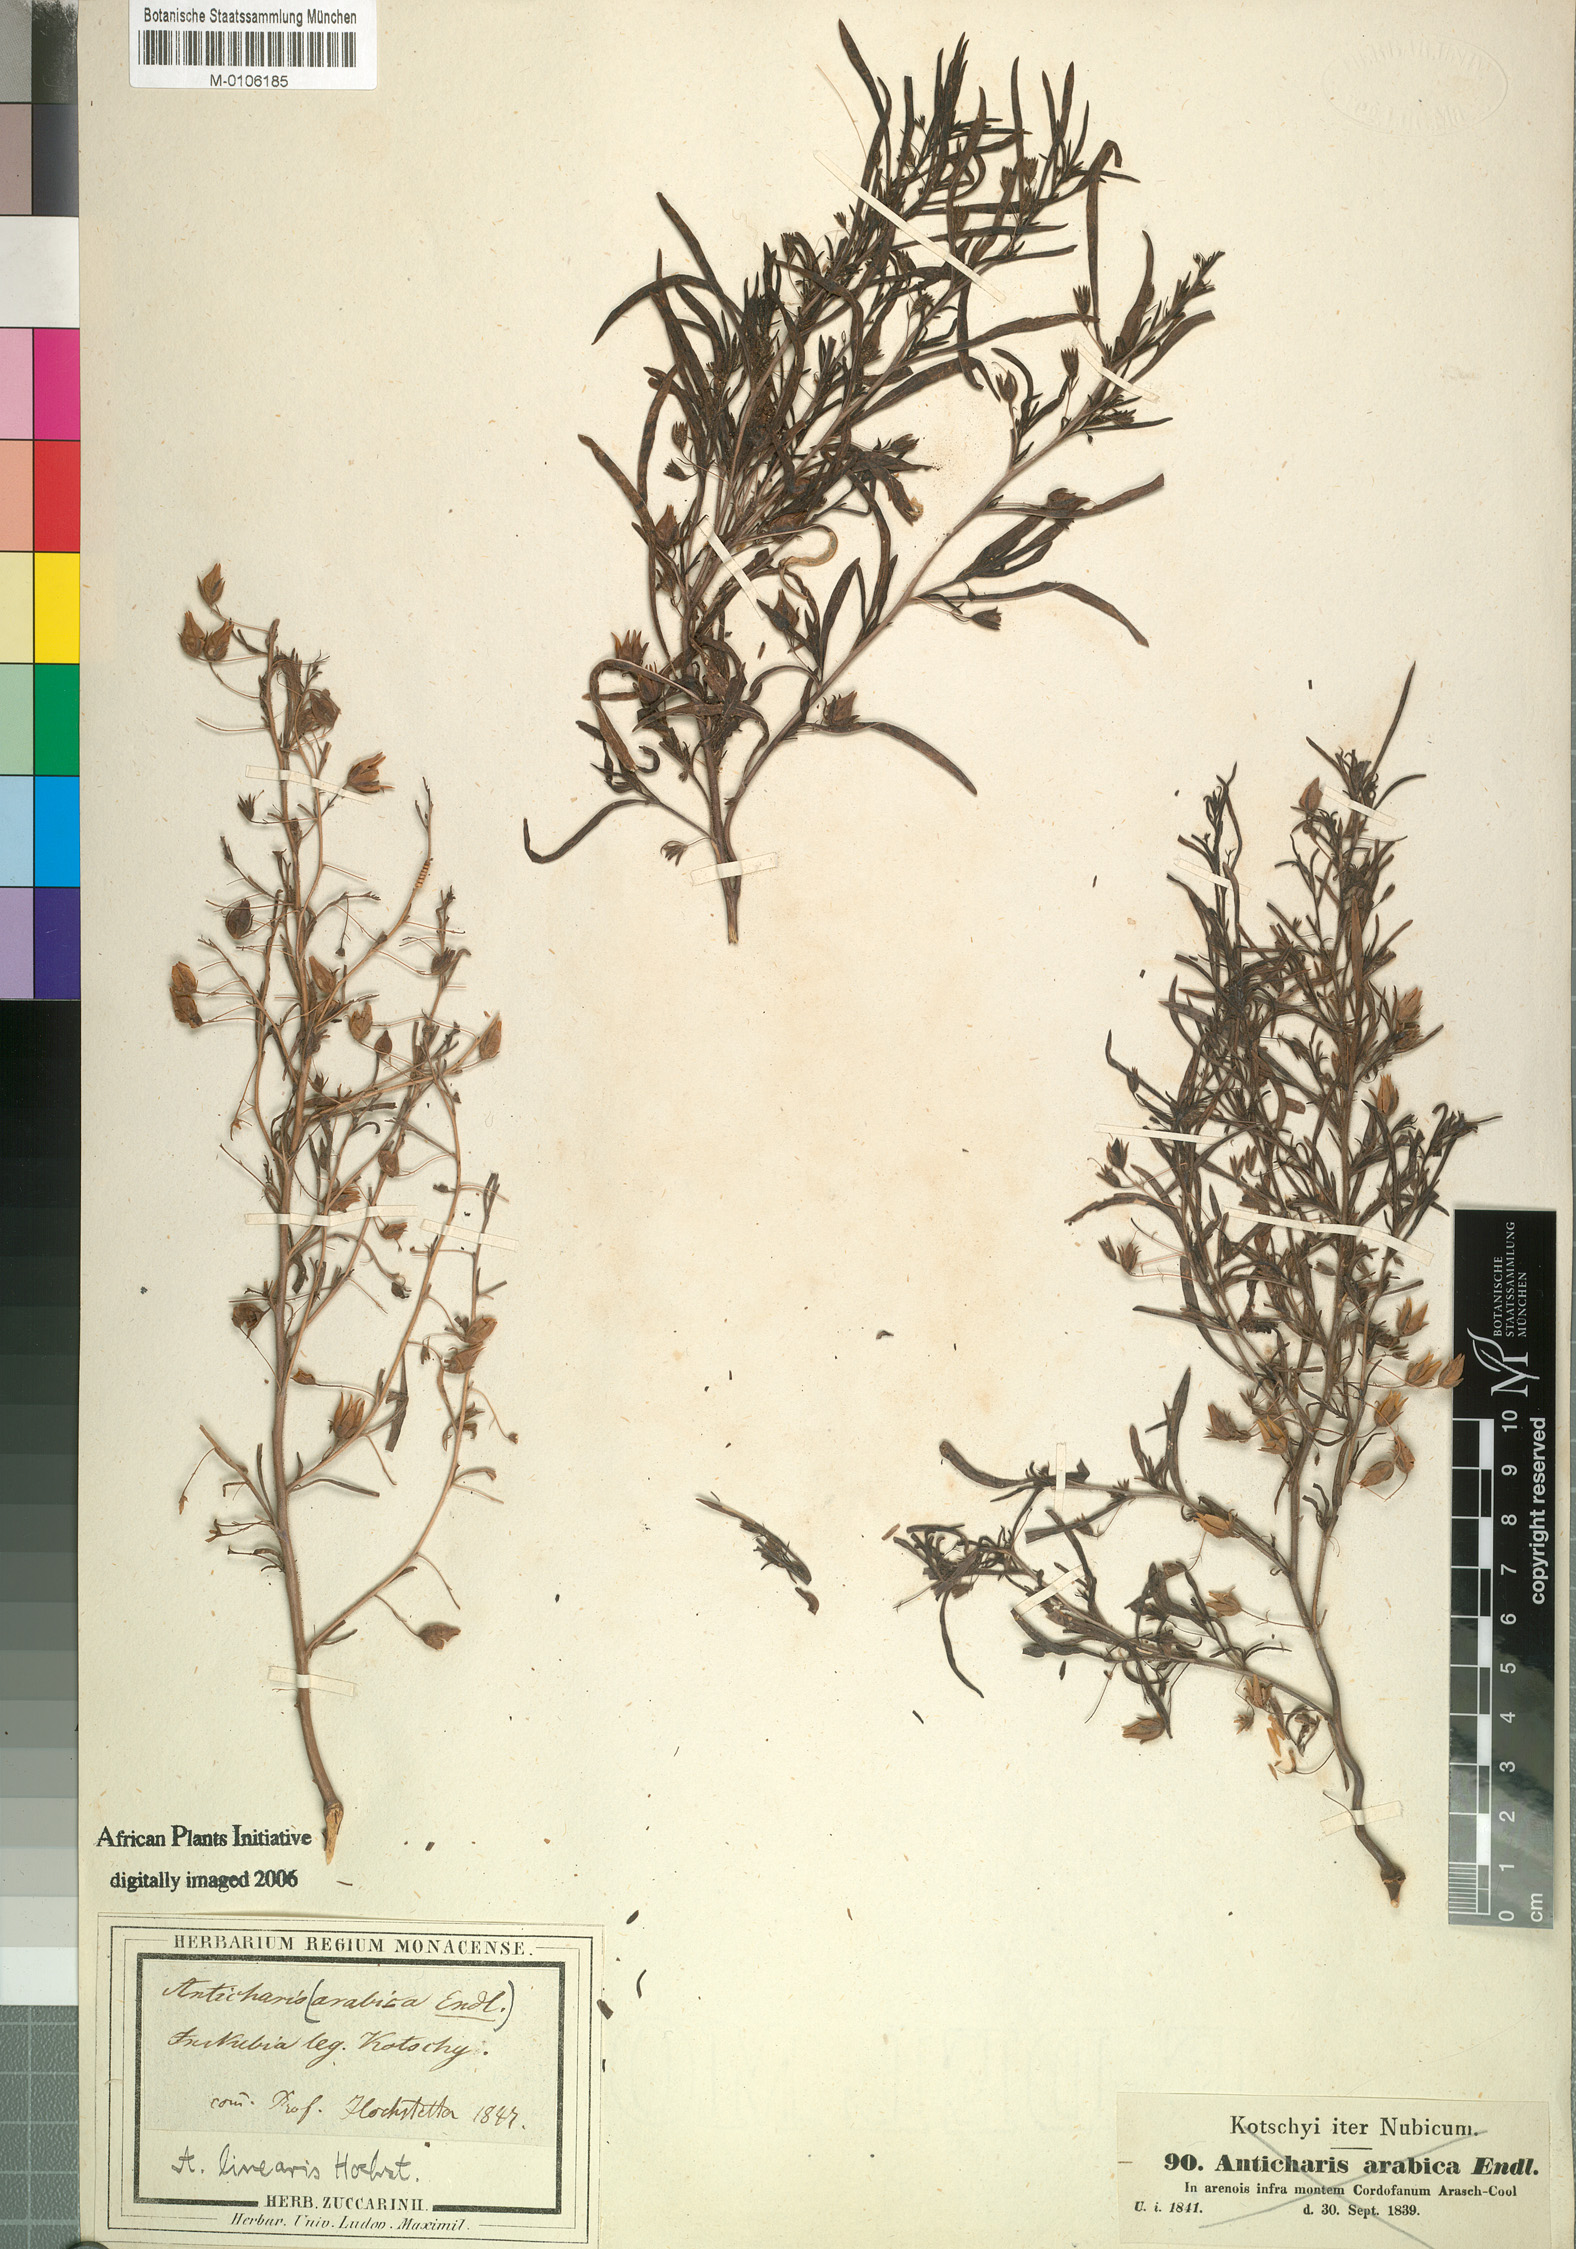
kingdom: Plantae
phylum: Tracheophyta
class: Magnoliopsida
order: Lamiales
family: Scrophulariaceae
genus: Anticharis
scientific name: Anticharis arabica
